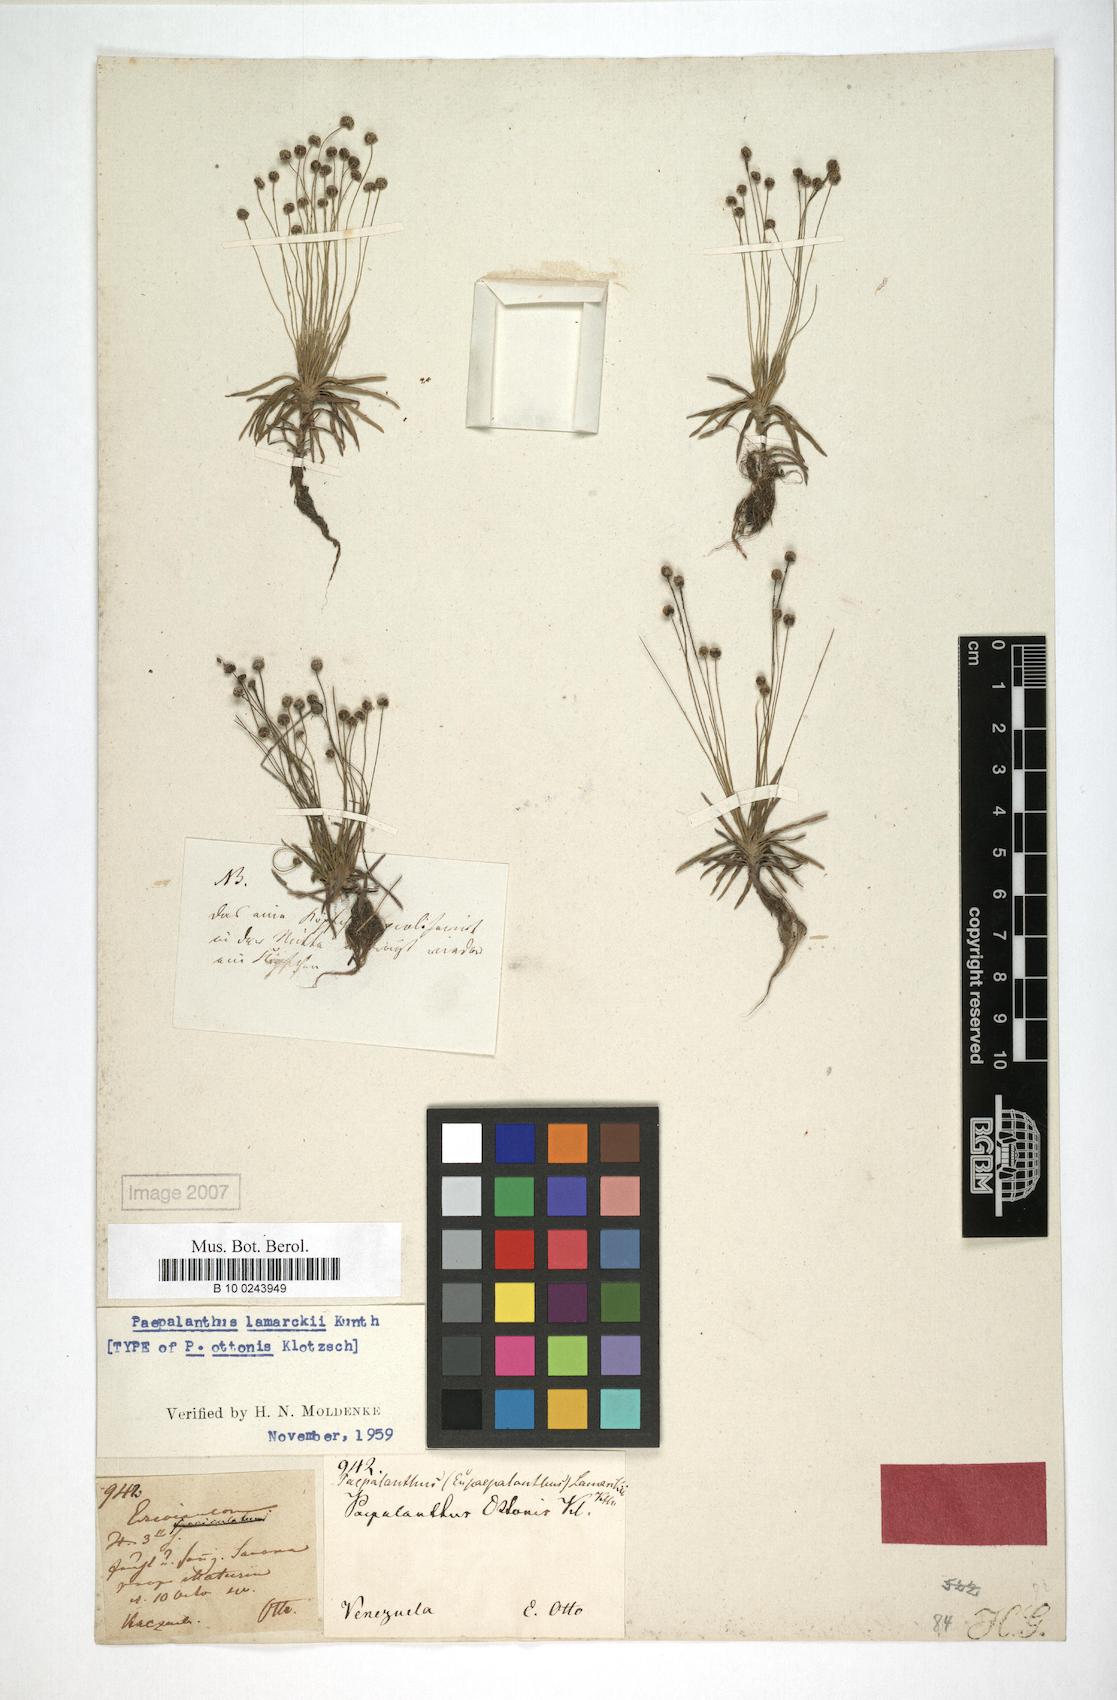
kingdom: Plantae
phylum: Tracheophyta
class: Liliopsida
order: Poales
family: Eriocaulaceae
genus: Paepalanthus
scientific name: Paepalanthus lamarckii
